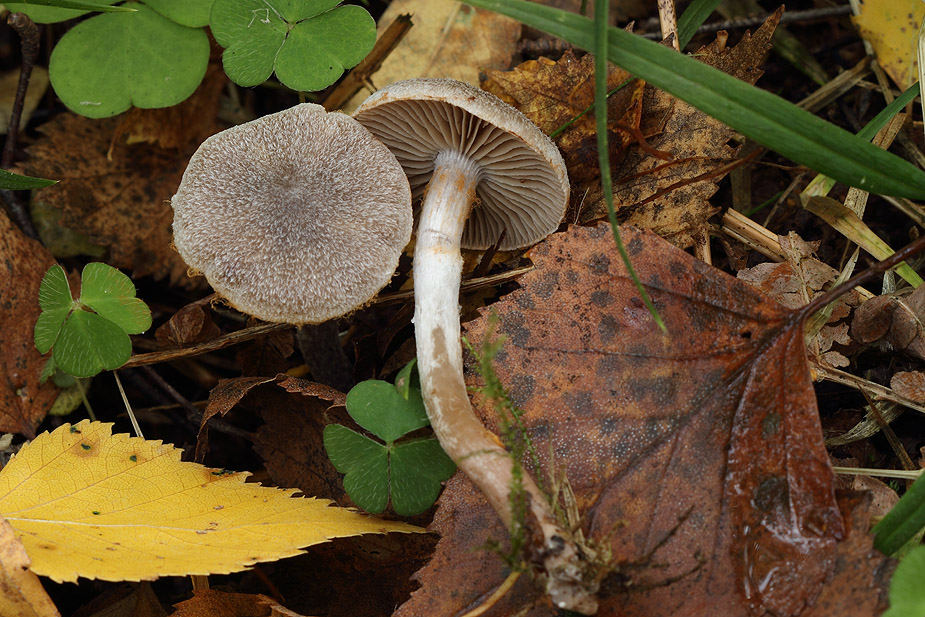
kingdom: Fungi
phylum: Basidiomycota
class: Agaricomycetes
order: Agaricales
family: Cortinariaceae
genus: Cortinarius
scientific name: Cortinarius hemitrichus
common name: hvidfnugget slørhat
